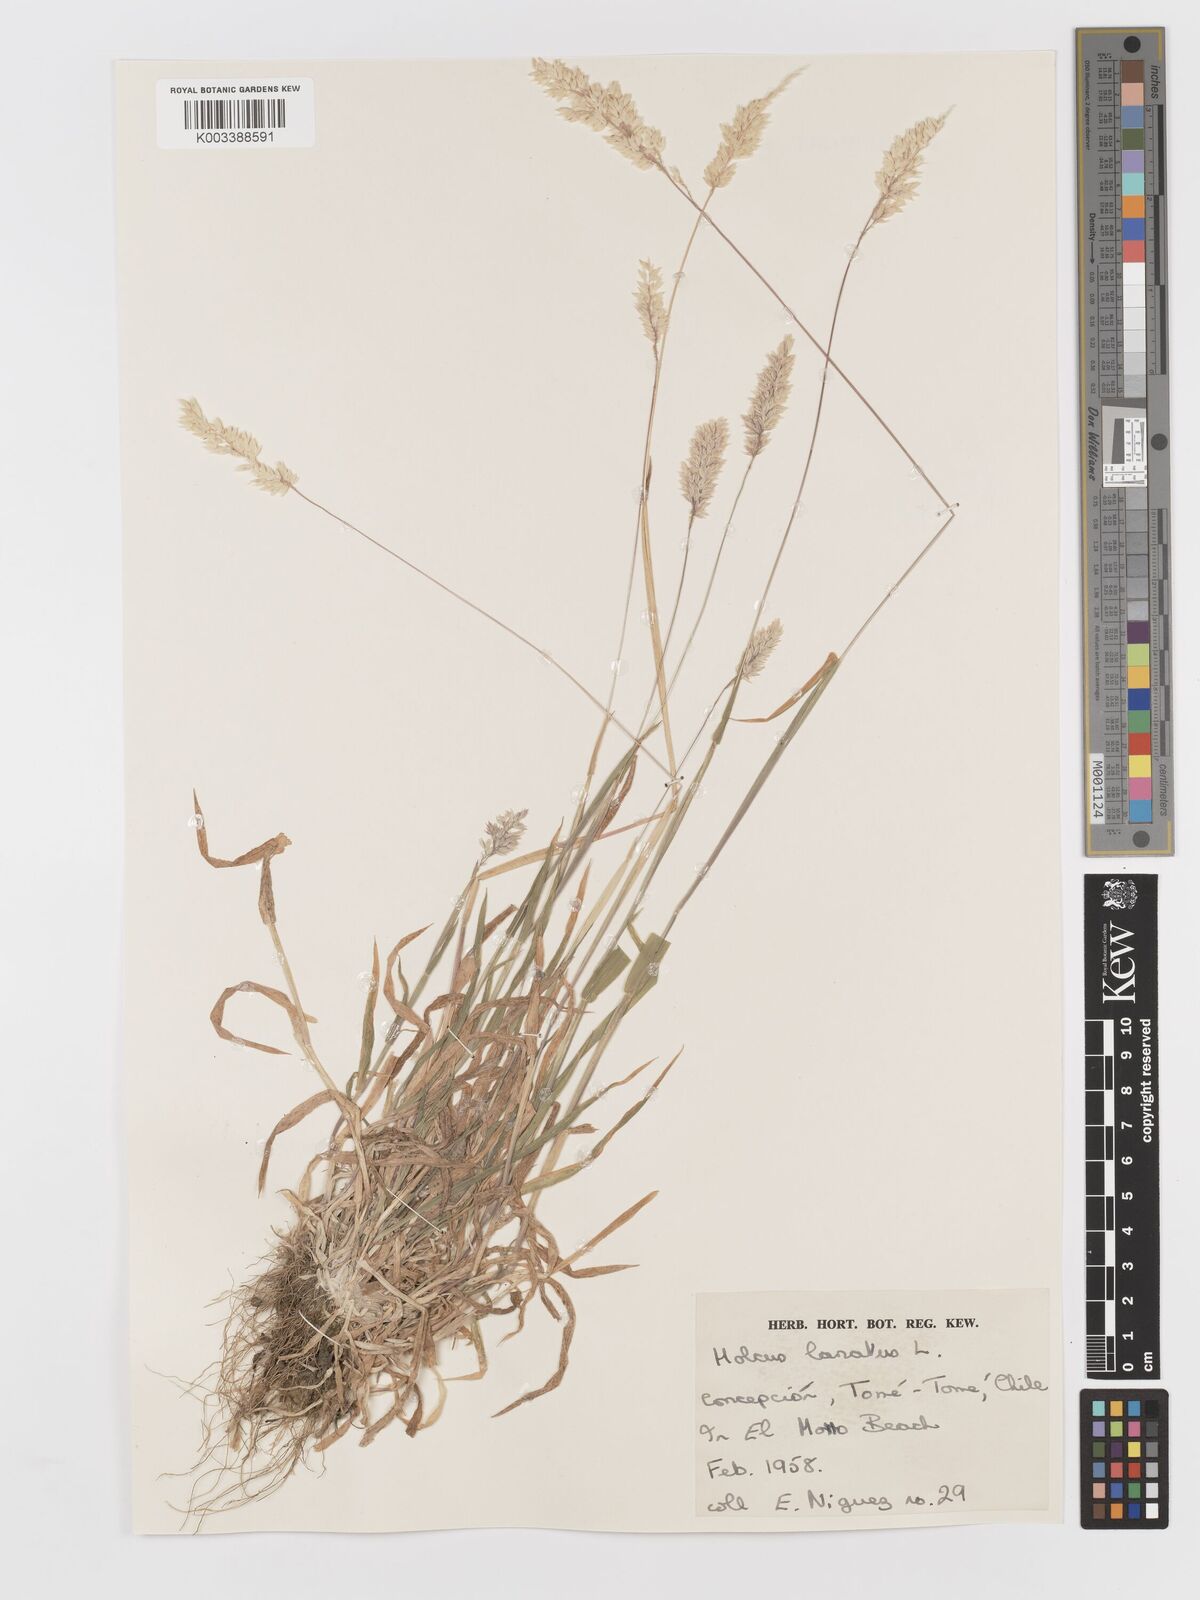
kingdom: Plantae
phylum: Tracheophyta
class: Liliopsida
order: Poales
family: Poaceae
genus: Holcus
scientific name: Holcus lanatus
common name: Yorkshire-fog
